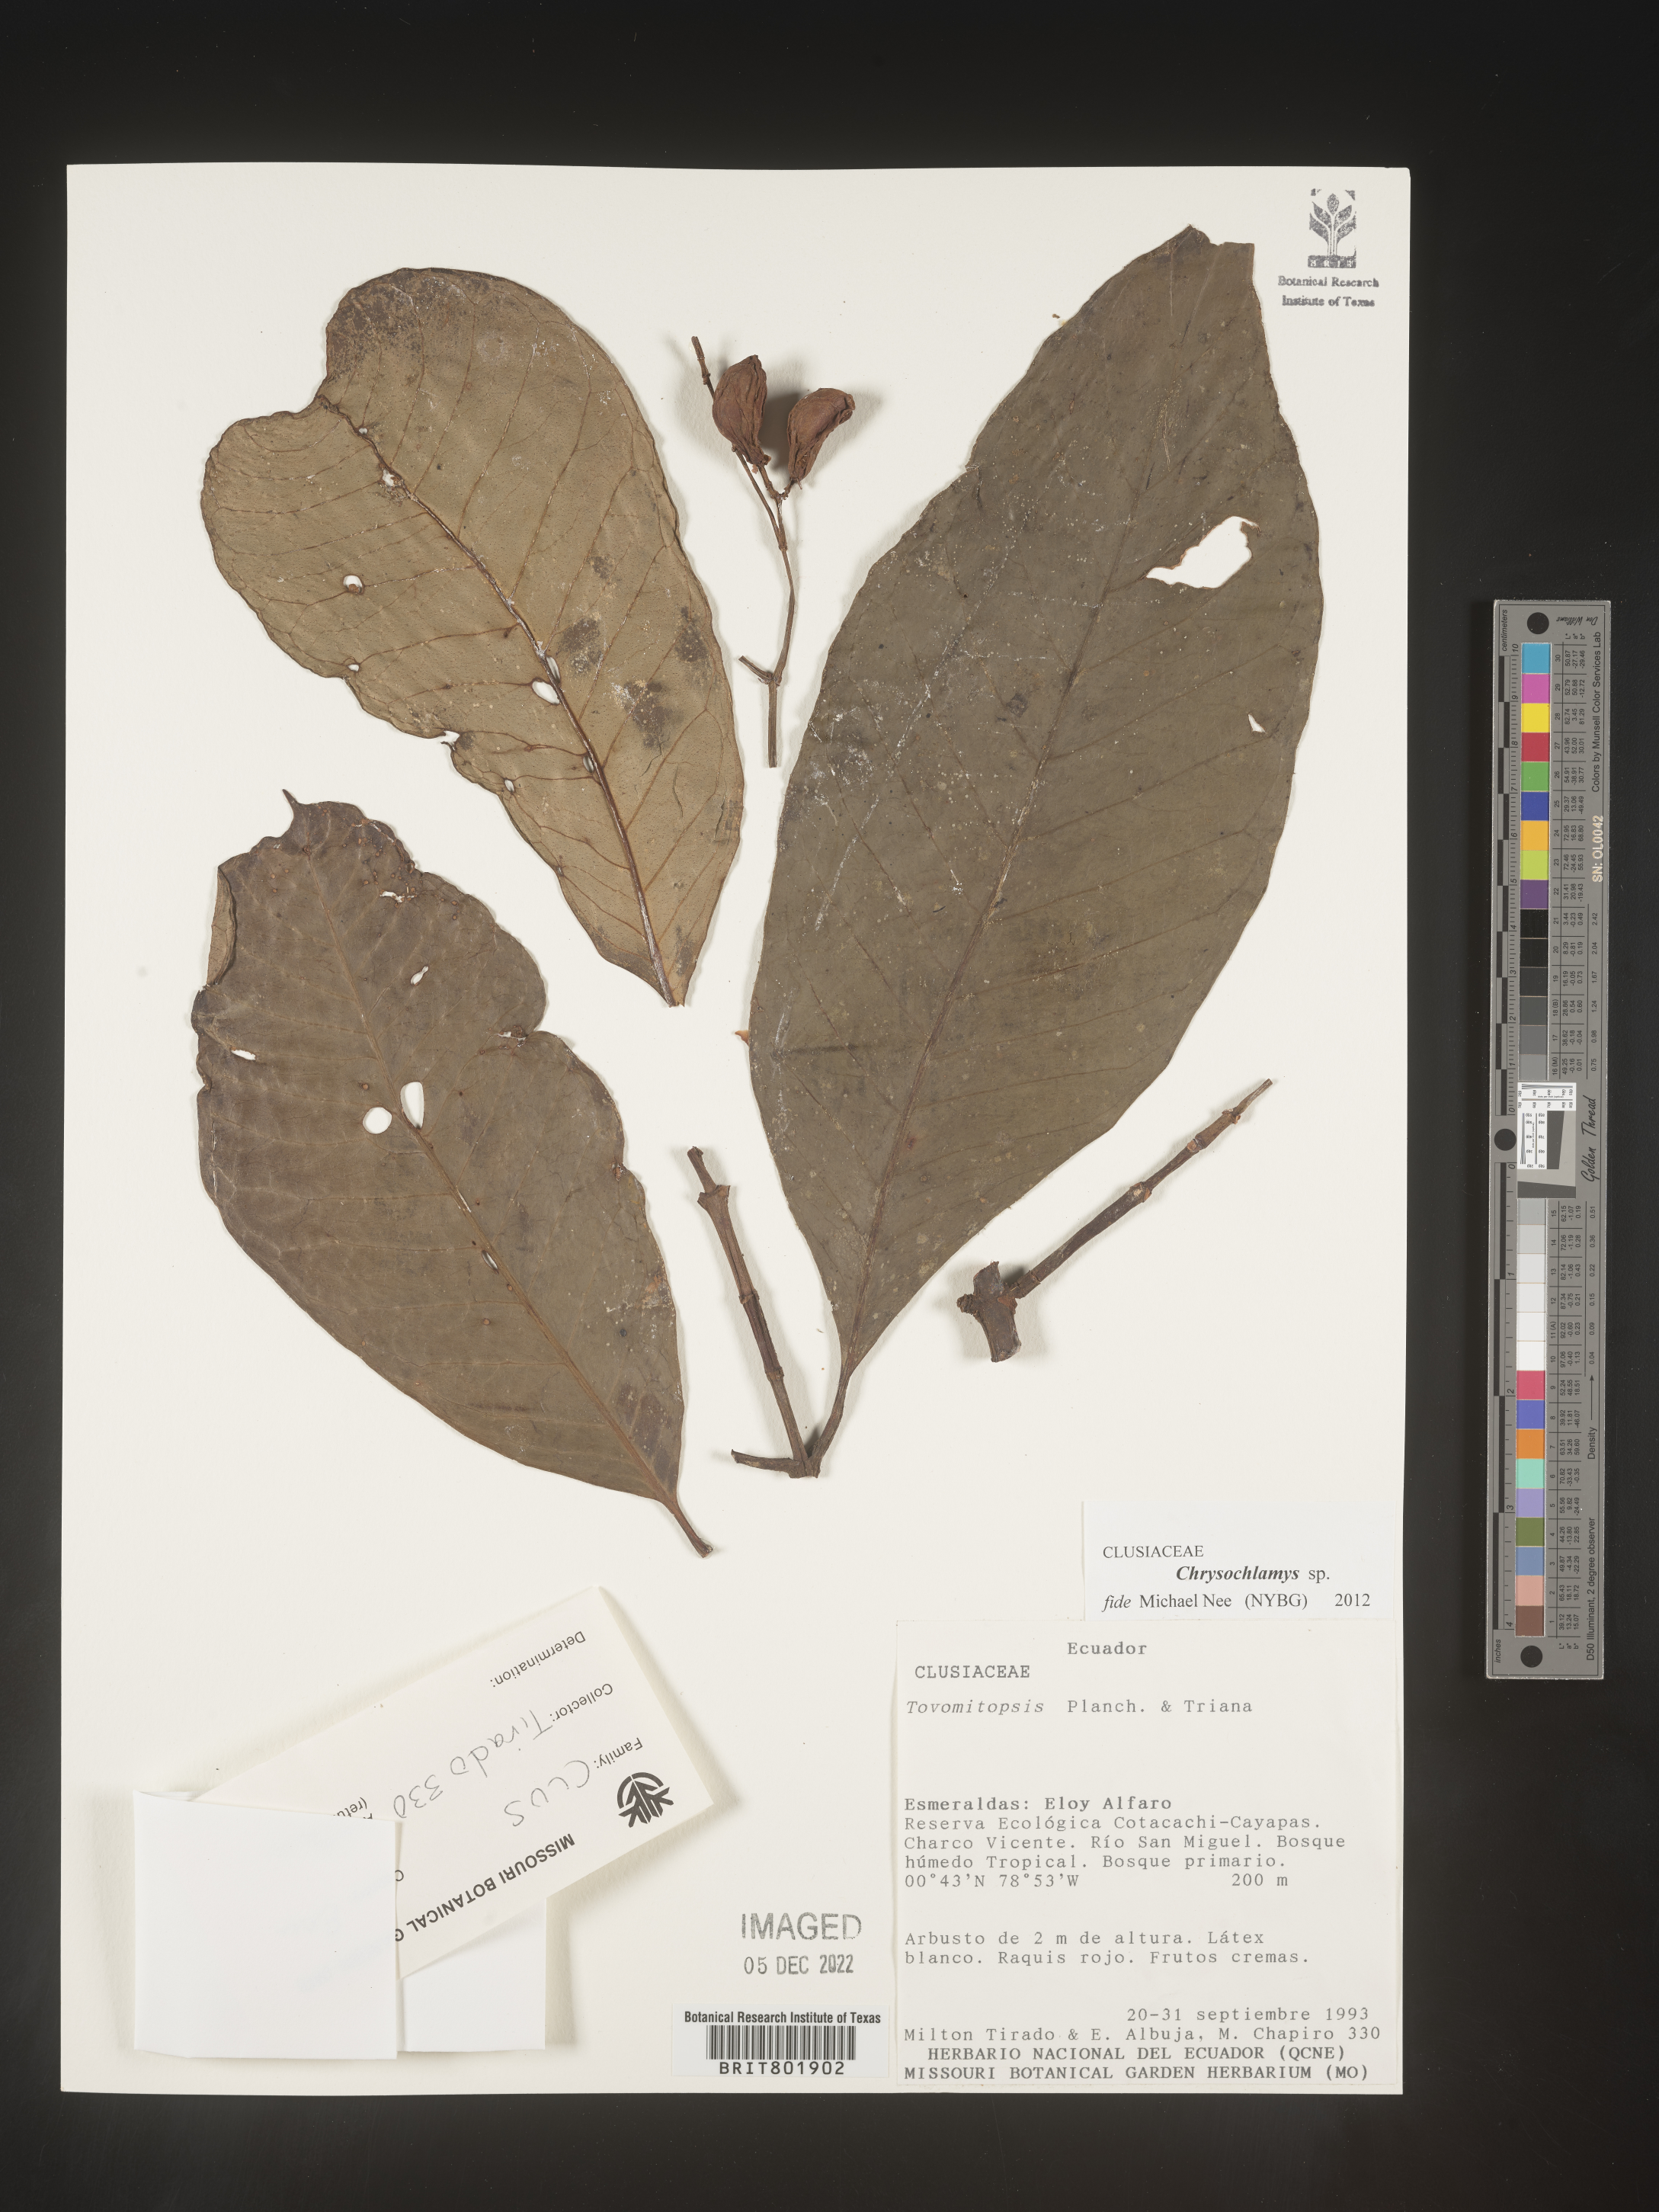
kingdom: Plantae
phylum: Tracheophyta
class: Magnoliopsida
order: Malpighiales
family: Clusiaceae
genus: Chrysochlamys
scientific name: Chrysochlamys
